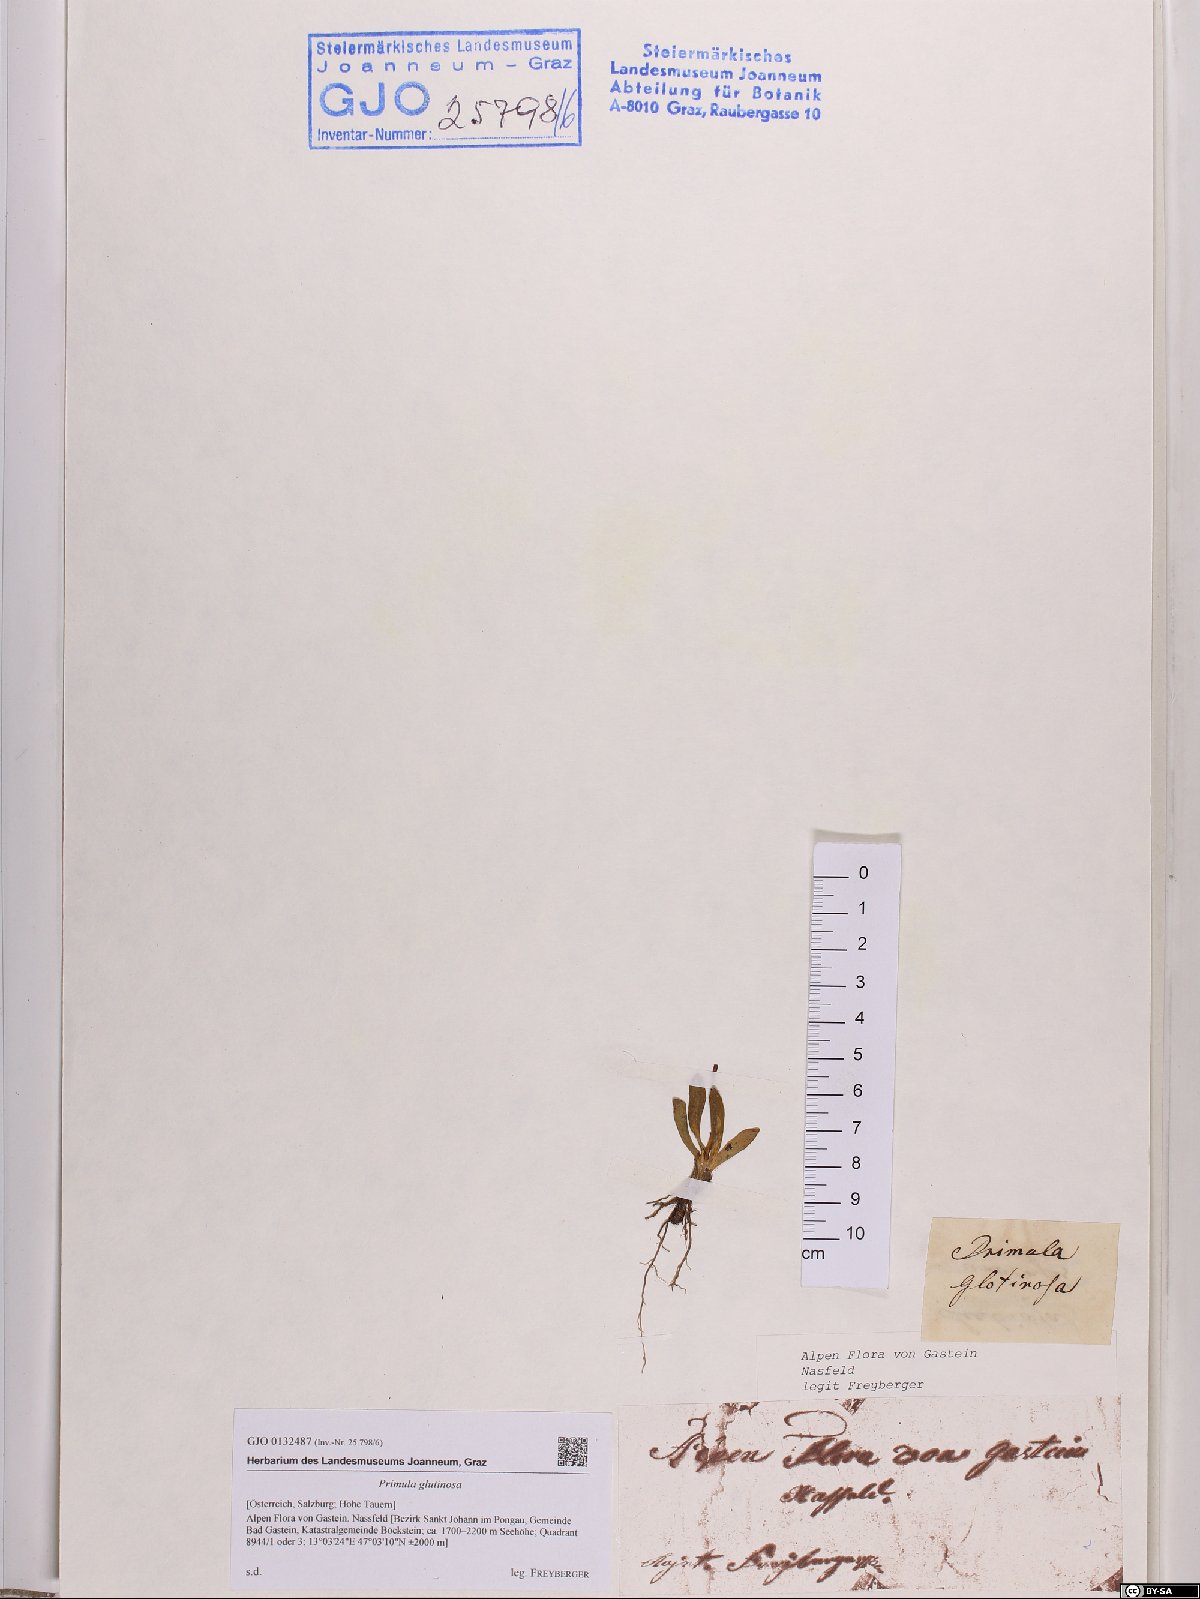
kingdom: Plantae
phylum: Tracheophyta
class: Magnoliopsida
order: Ericales
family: Primulaceae
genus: Primula
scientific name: Primula glutinosa
